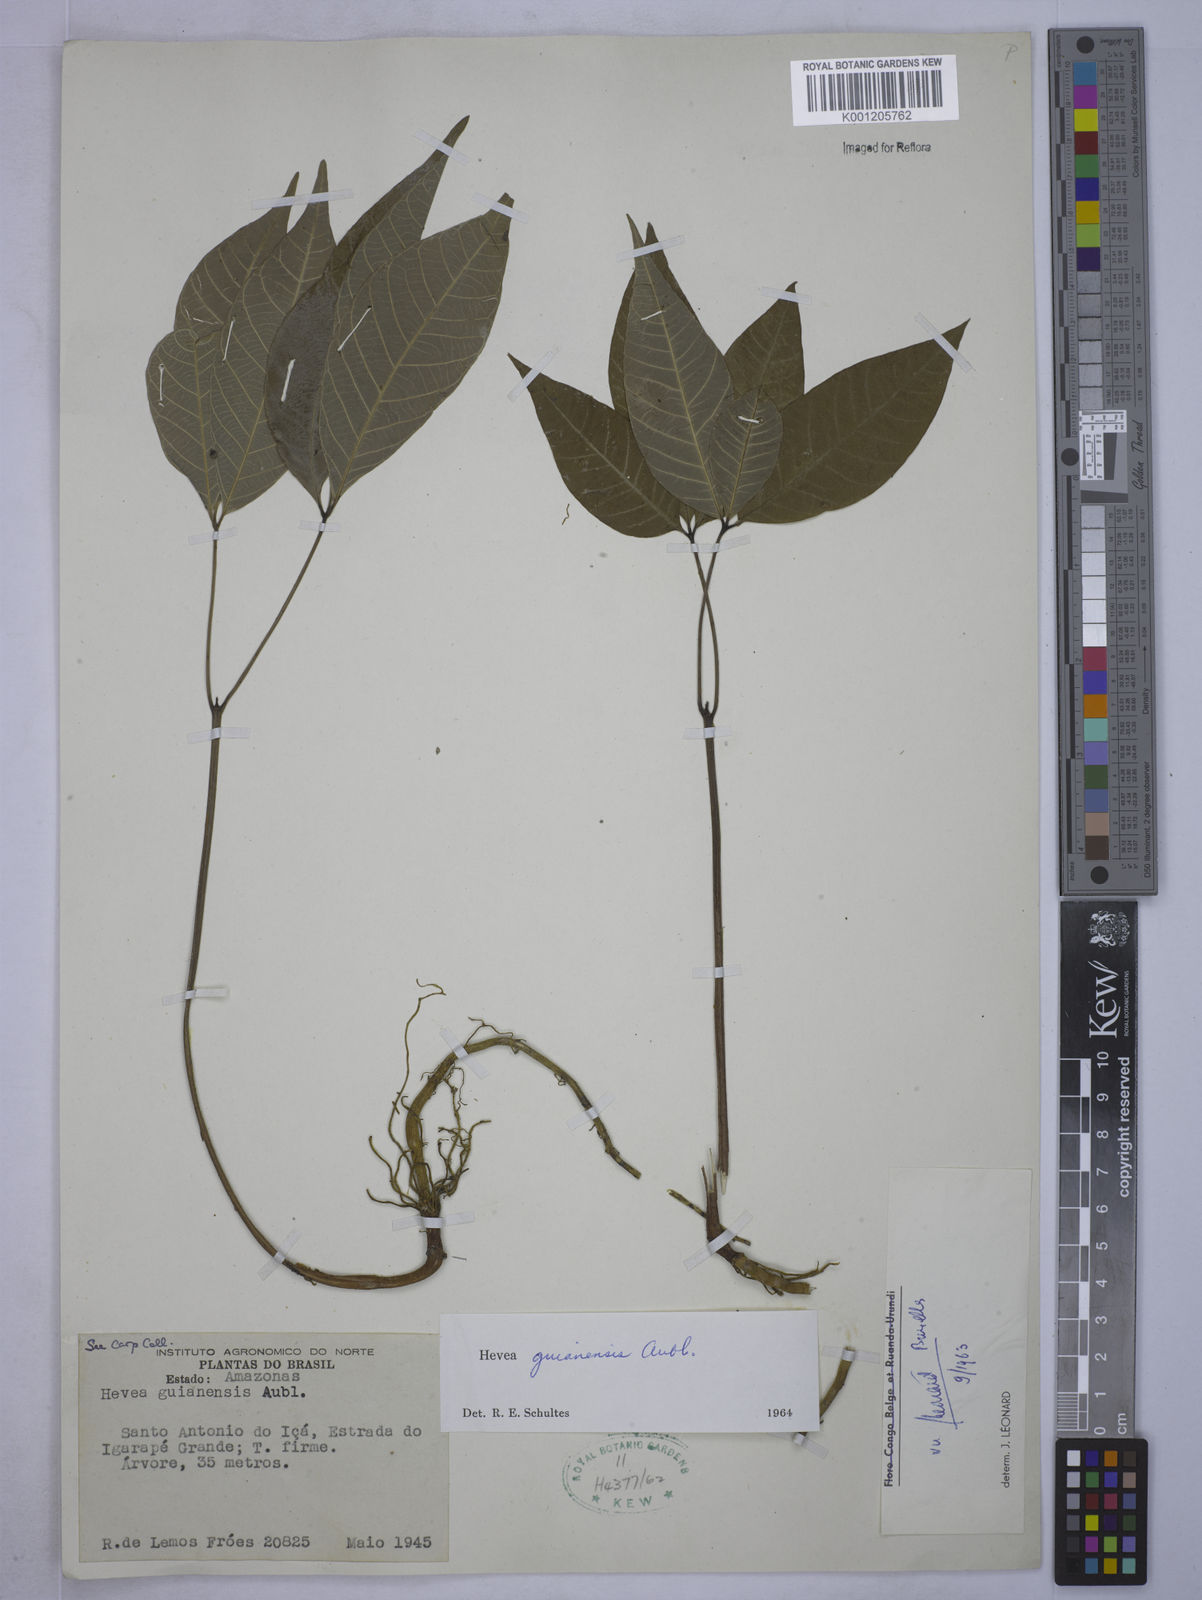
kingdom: Plantae
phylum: Tracheophyta
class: Magnoliopsida
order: Malpighiales
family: Euphorbiaceae
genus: Hevea
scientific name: Hevea guianensis
